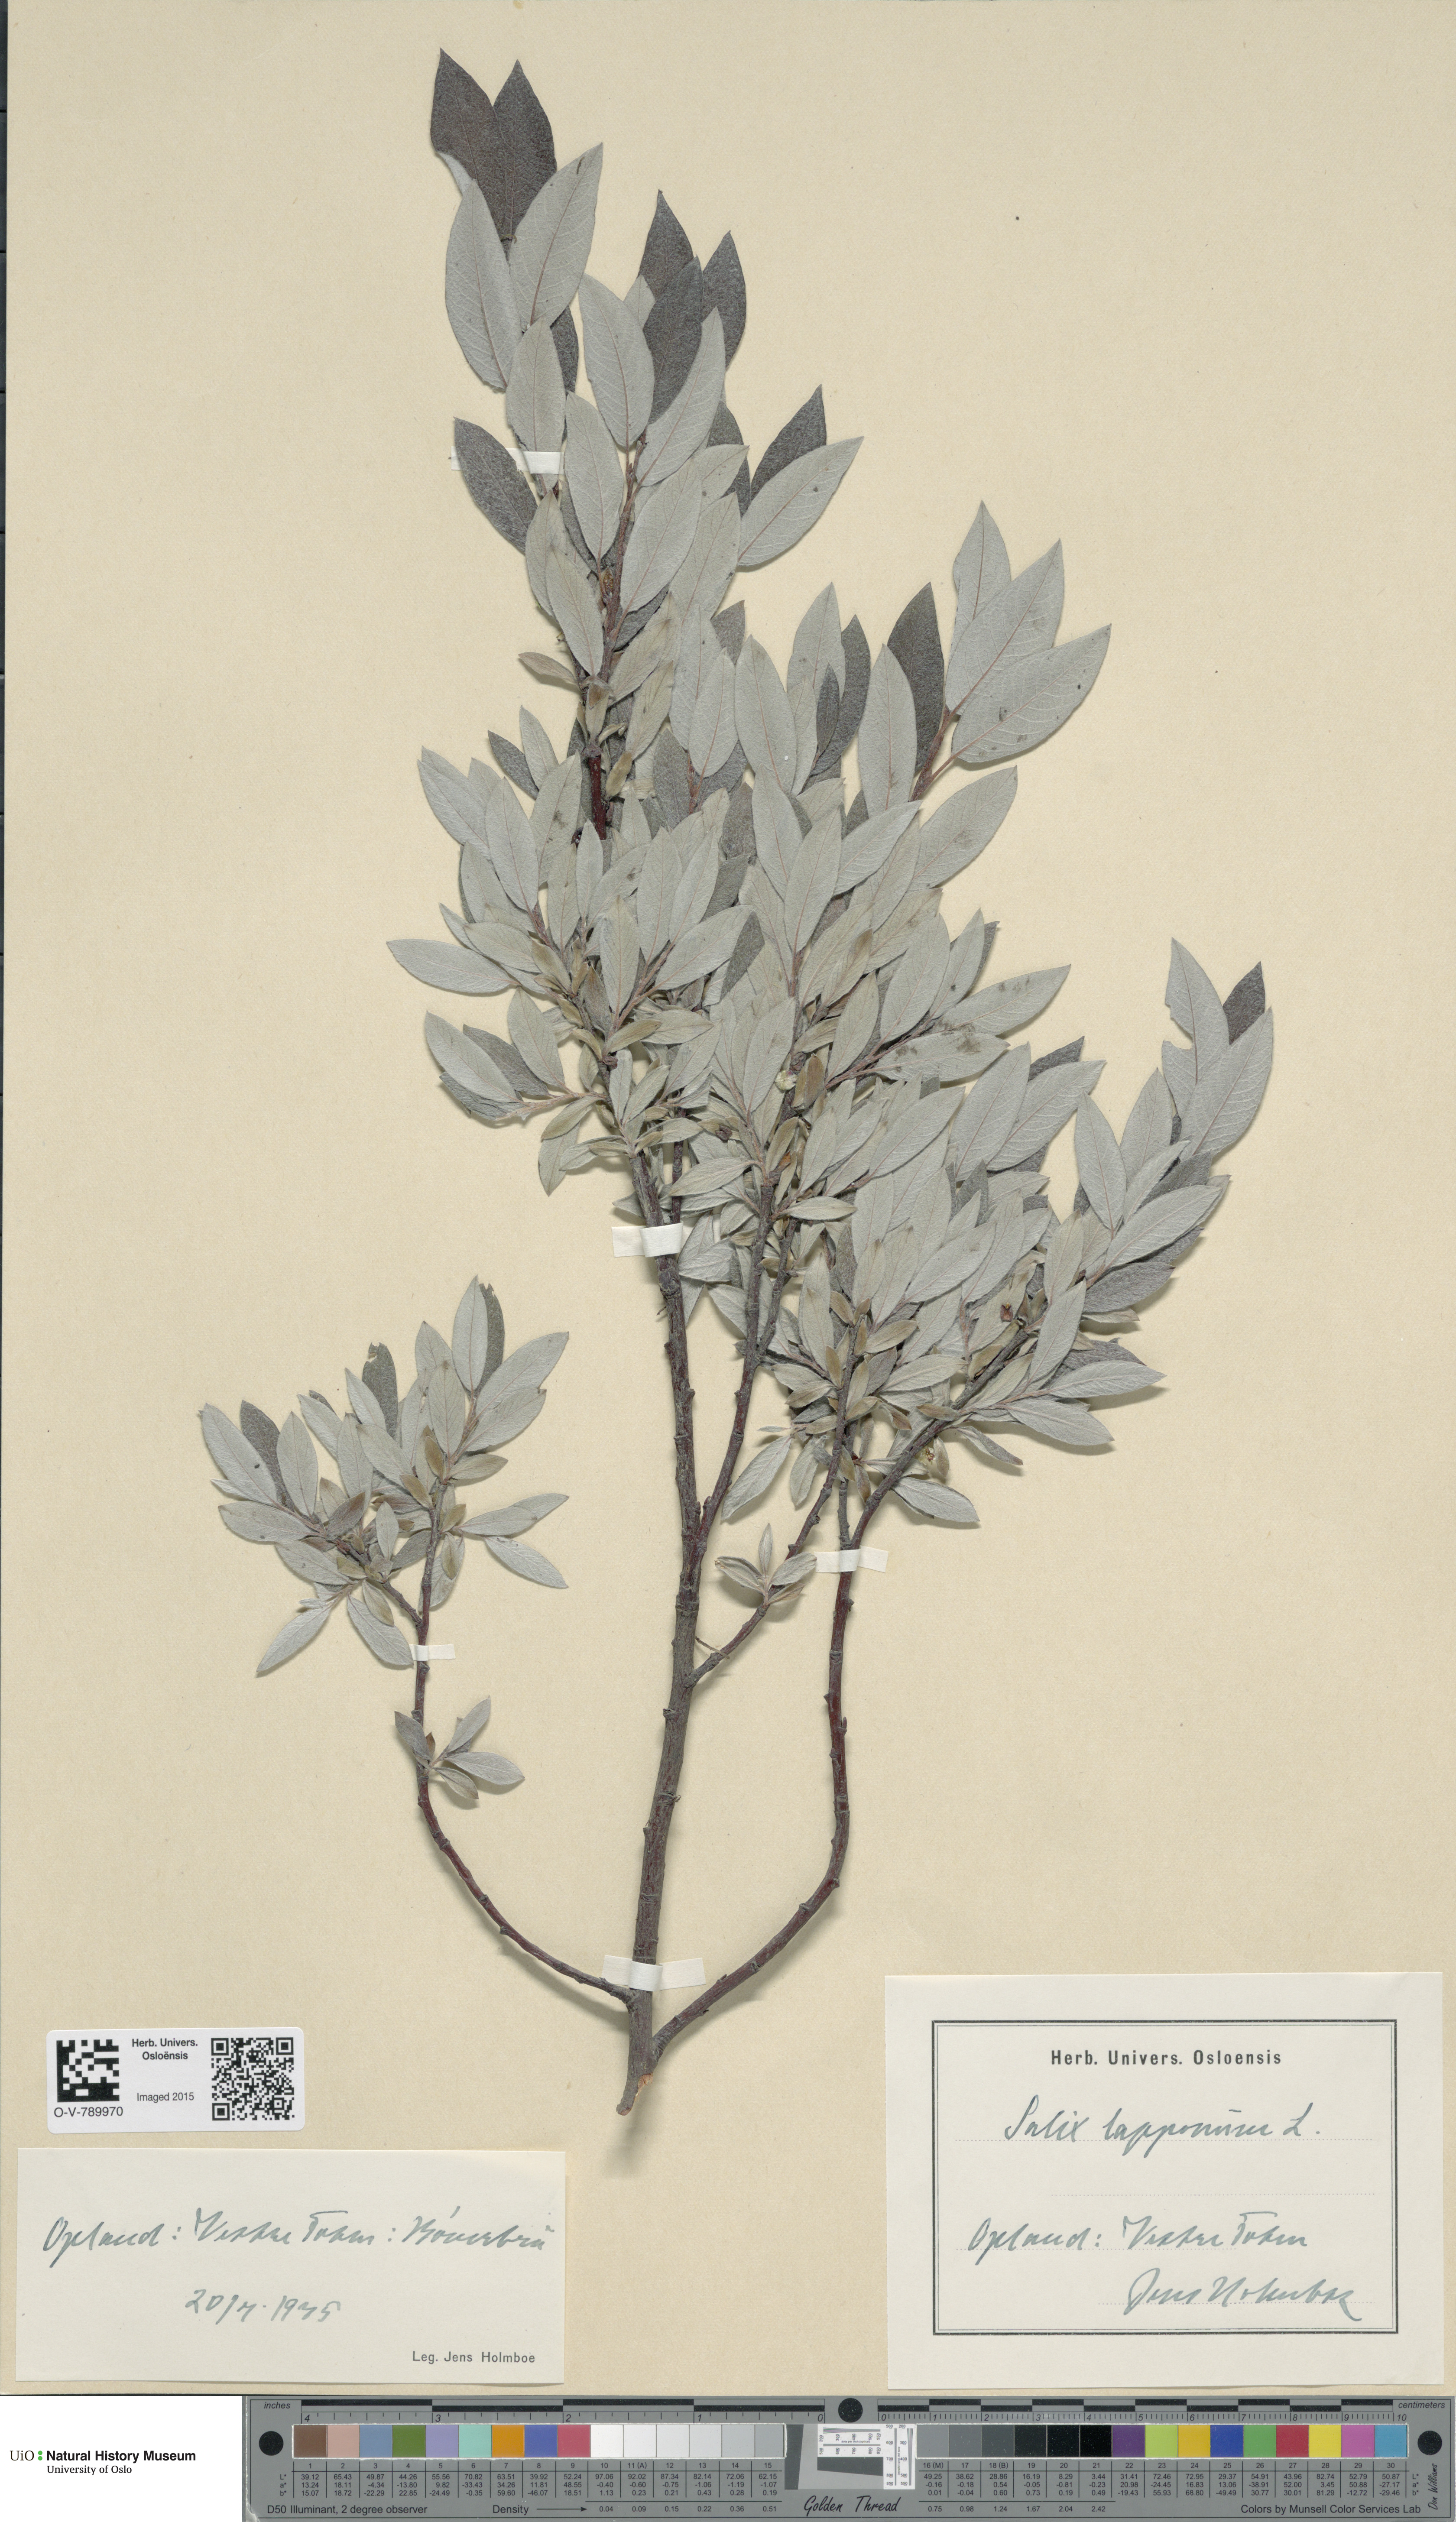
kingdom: Plantae
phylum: Tracheophyta
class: Magnoliopsida
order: Malpighiales
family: Salicaceae
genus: Salix
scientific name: Salix lapponum
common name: Downy willow
